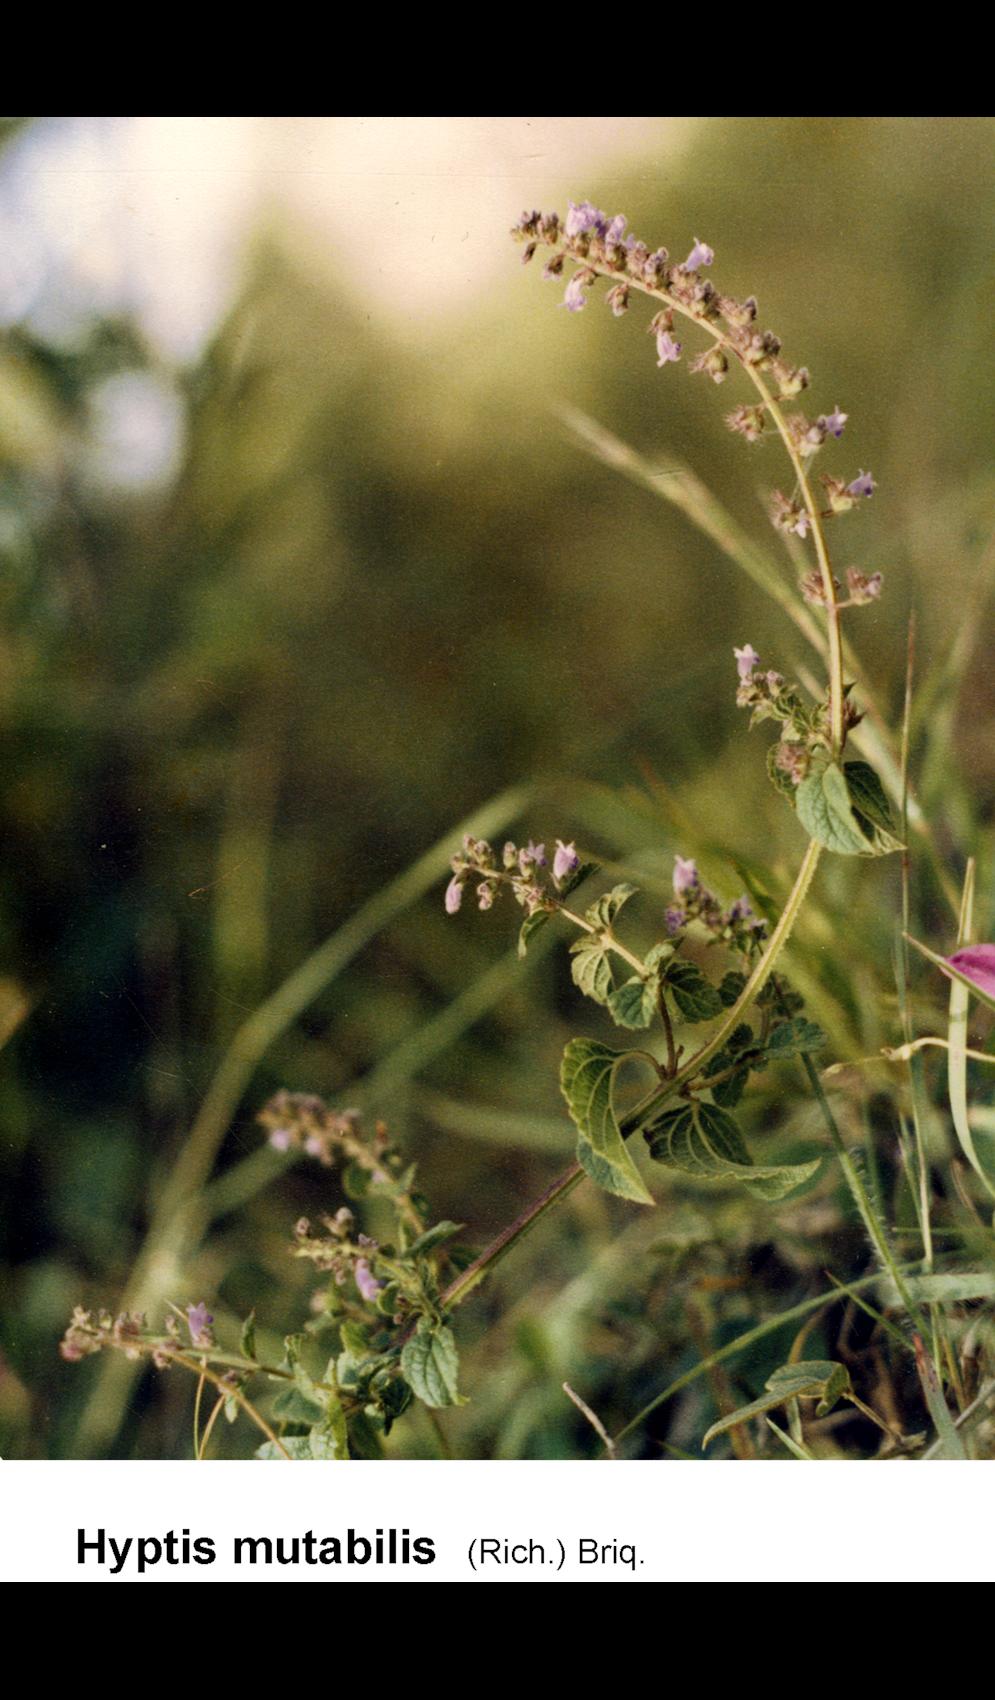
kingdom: Plantae
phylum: Tracheophyta
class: Magnoliopsida
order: Lamiales
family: Lamiaceae
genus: Cantinoa
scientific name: Cantinoa mutabilis
